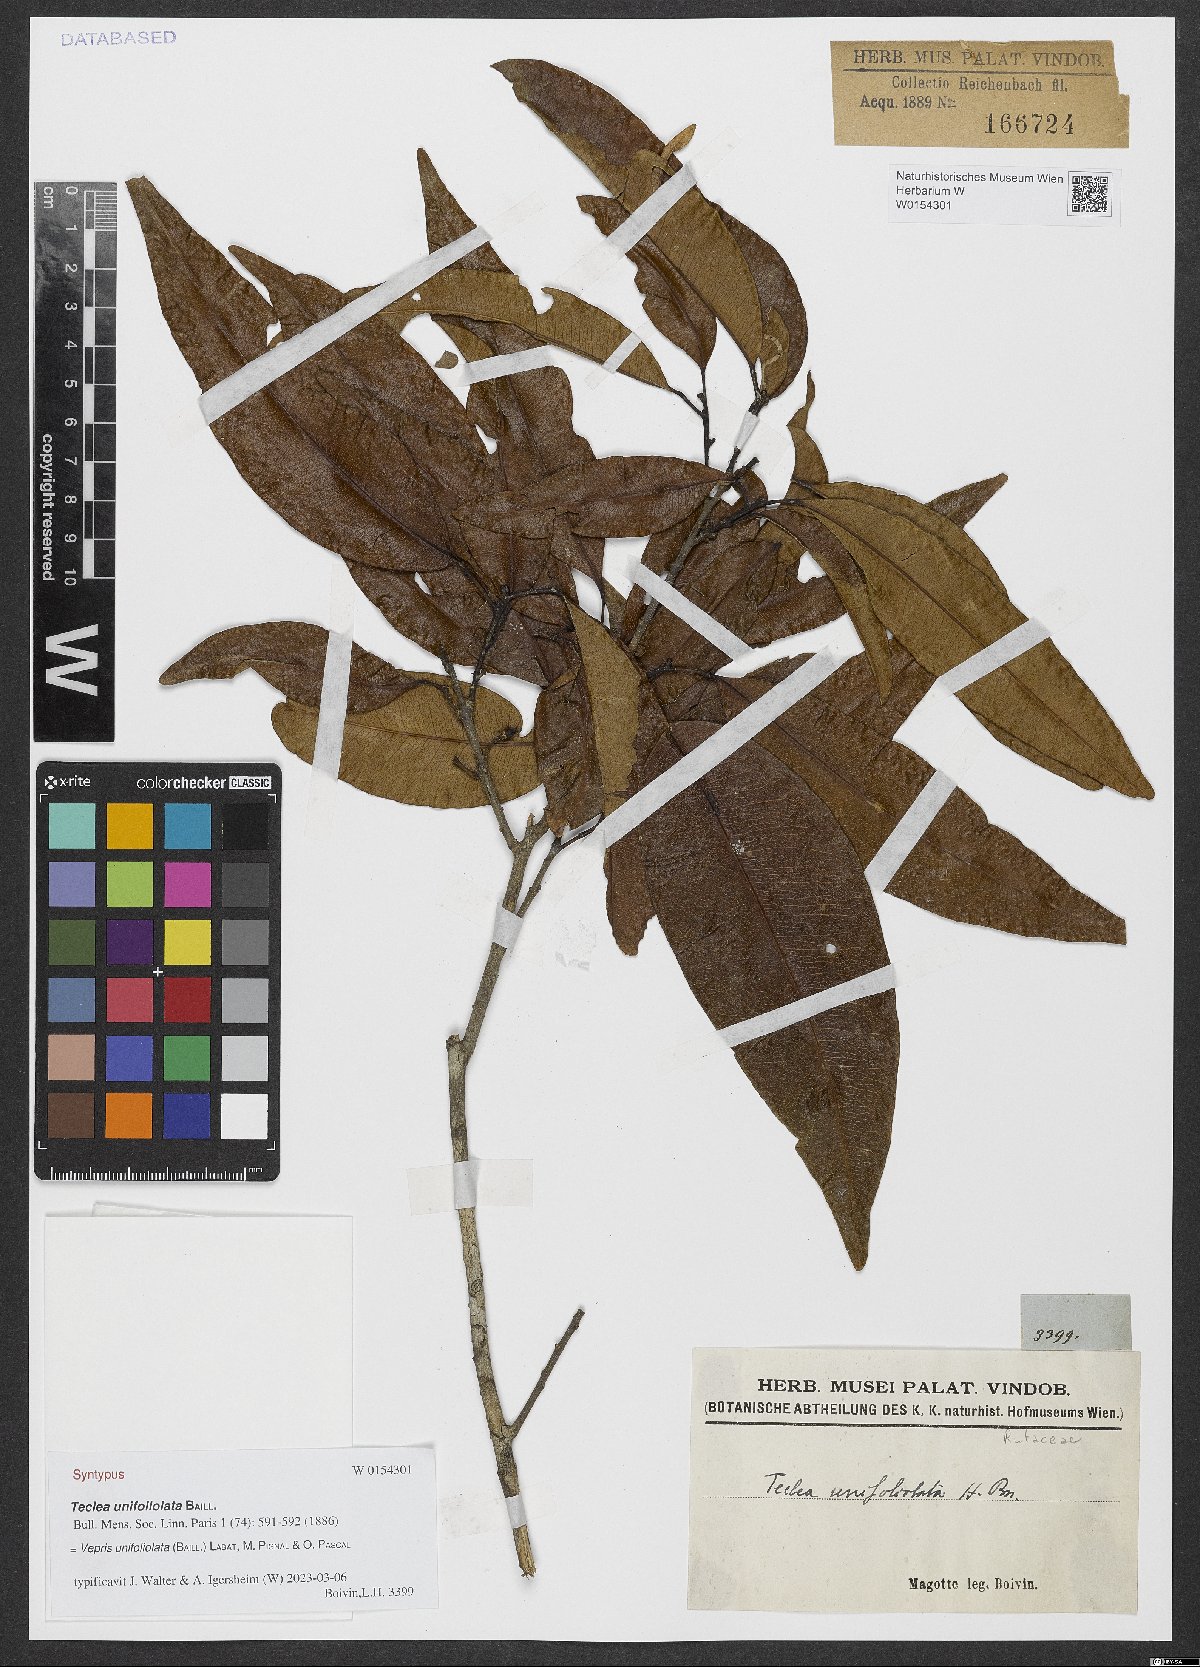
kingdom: Plantae
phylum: Tracheophyta
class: Magnoliopsida
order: Sapindales
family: Rutaceae
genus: Vepris
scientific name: Vepris unifoliolata
